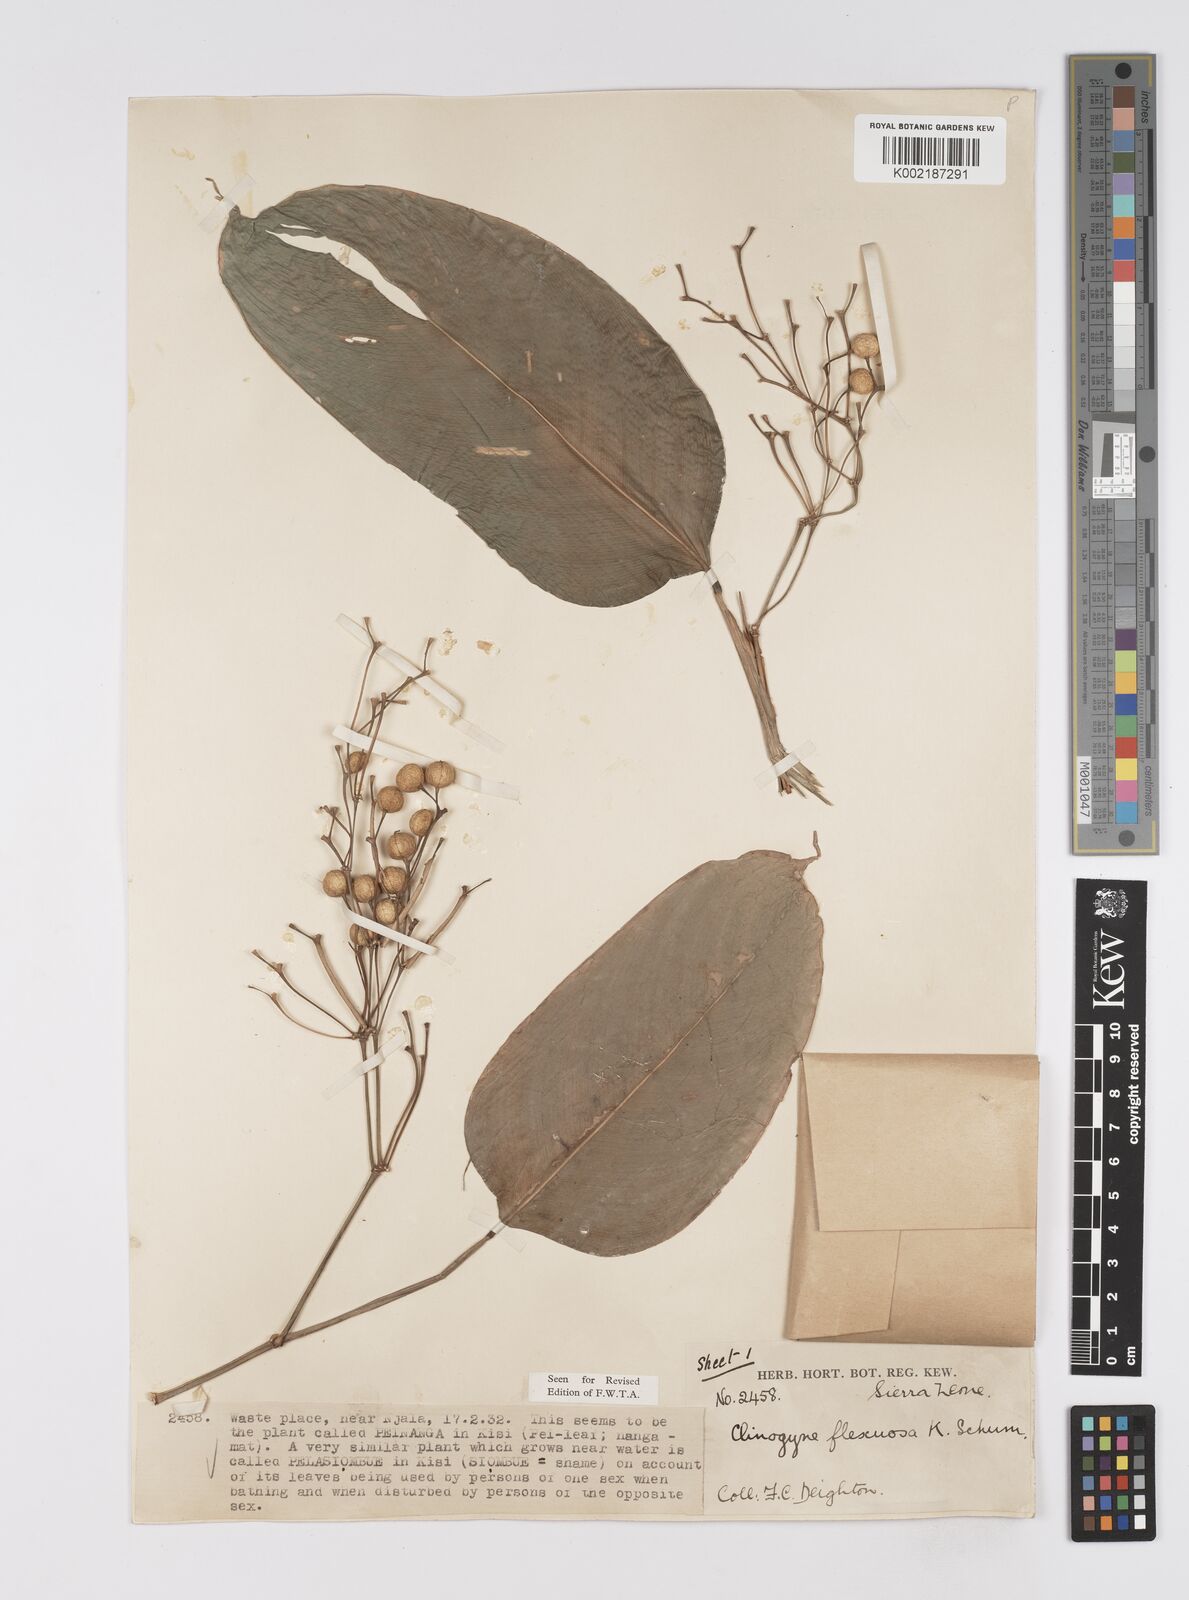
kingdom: Plantae
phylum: Tracheophyta
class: Liliopsida
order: Zingiberales
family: Marantaceae
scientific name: Marantaceae
